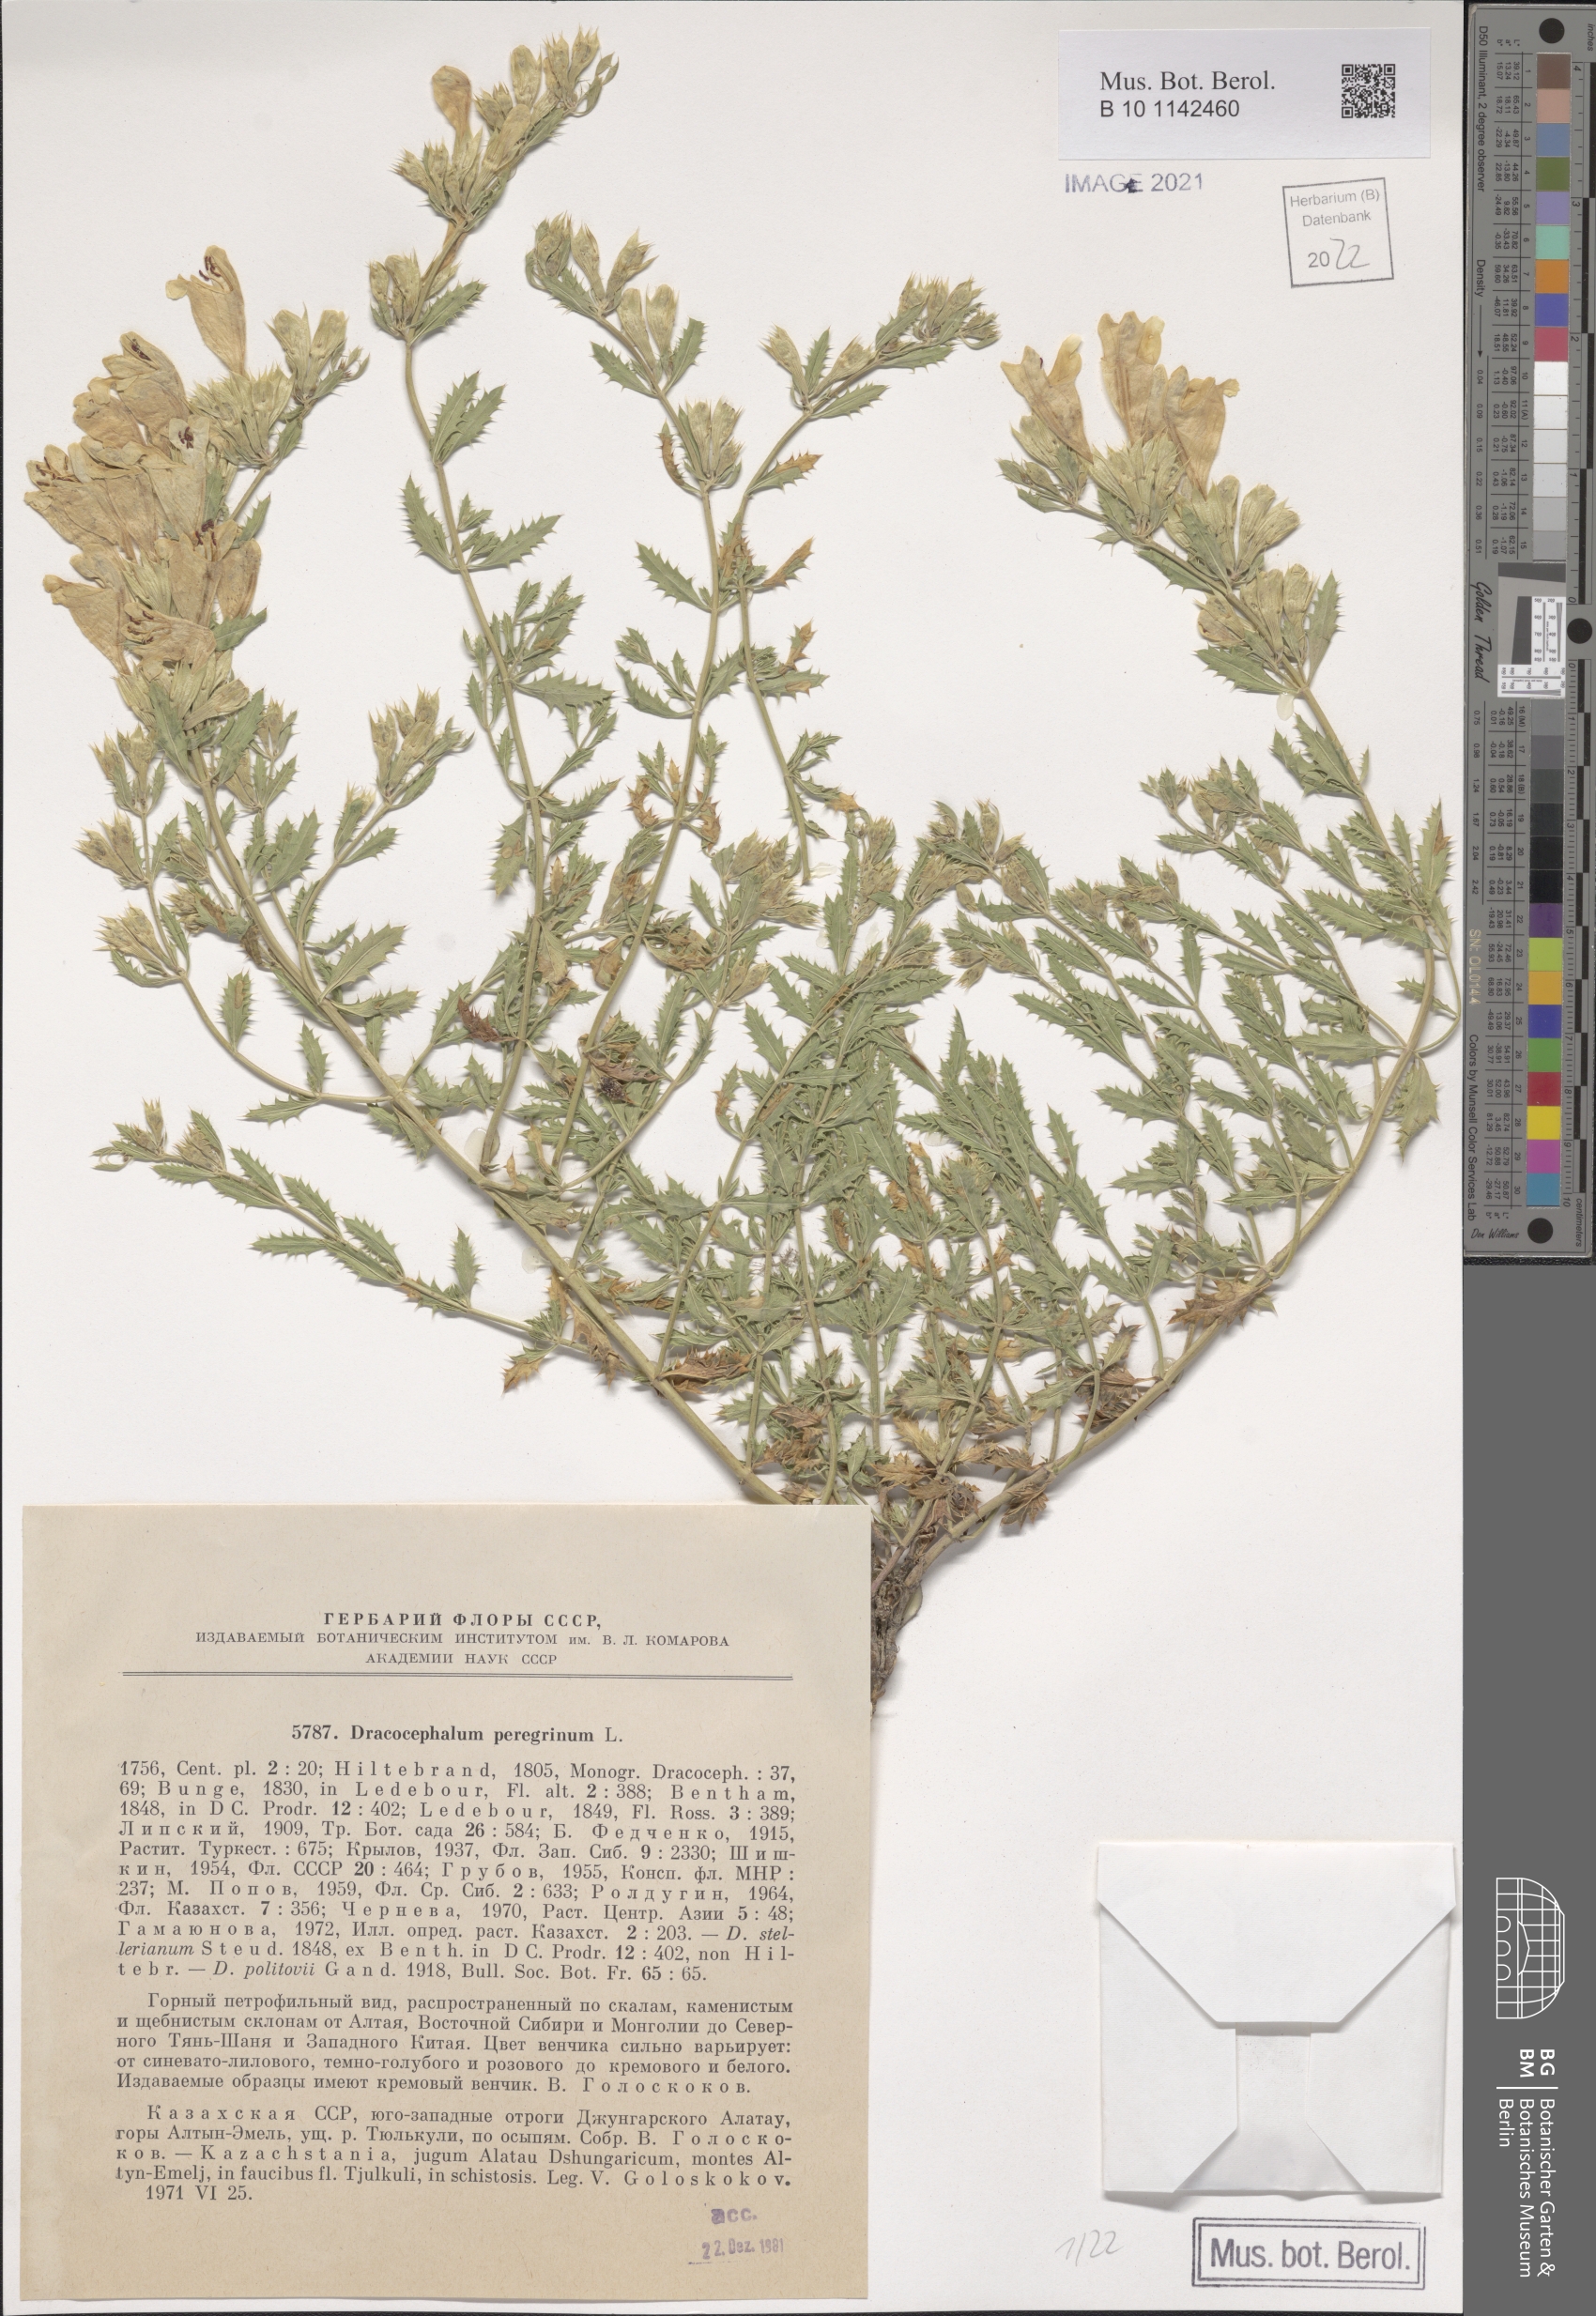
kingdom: Plantae
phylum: Tracheophyta
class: Magnoliopsida
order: Lamiales
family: Lamiaceae
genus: Dracocephalum
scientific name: Dracocephalum peregrinum
